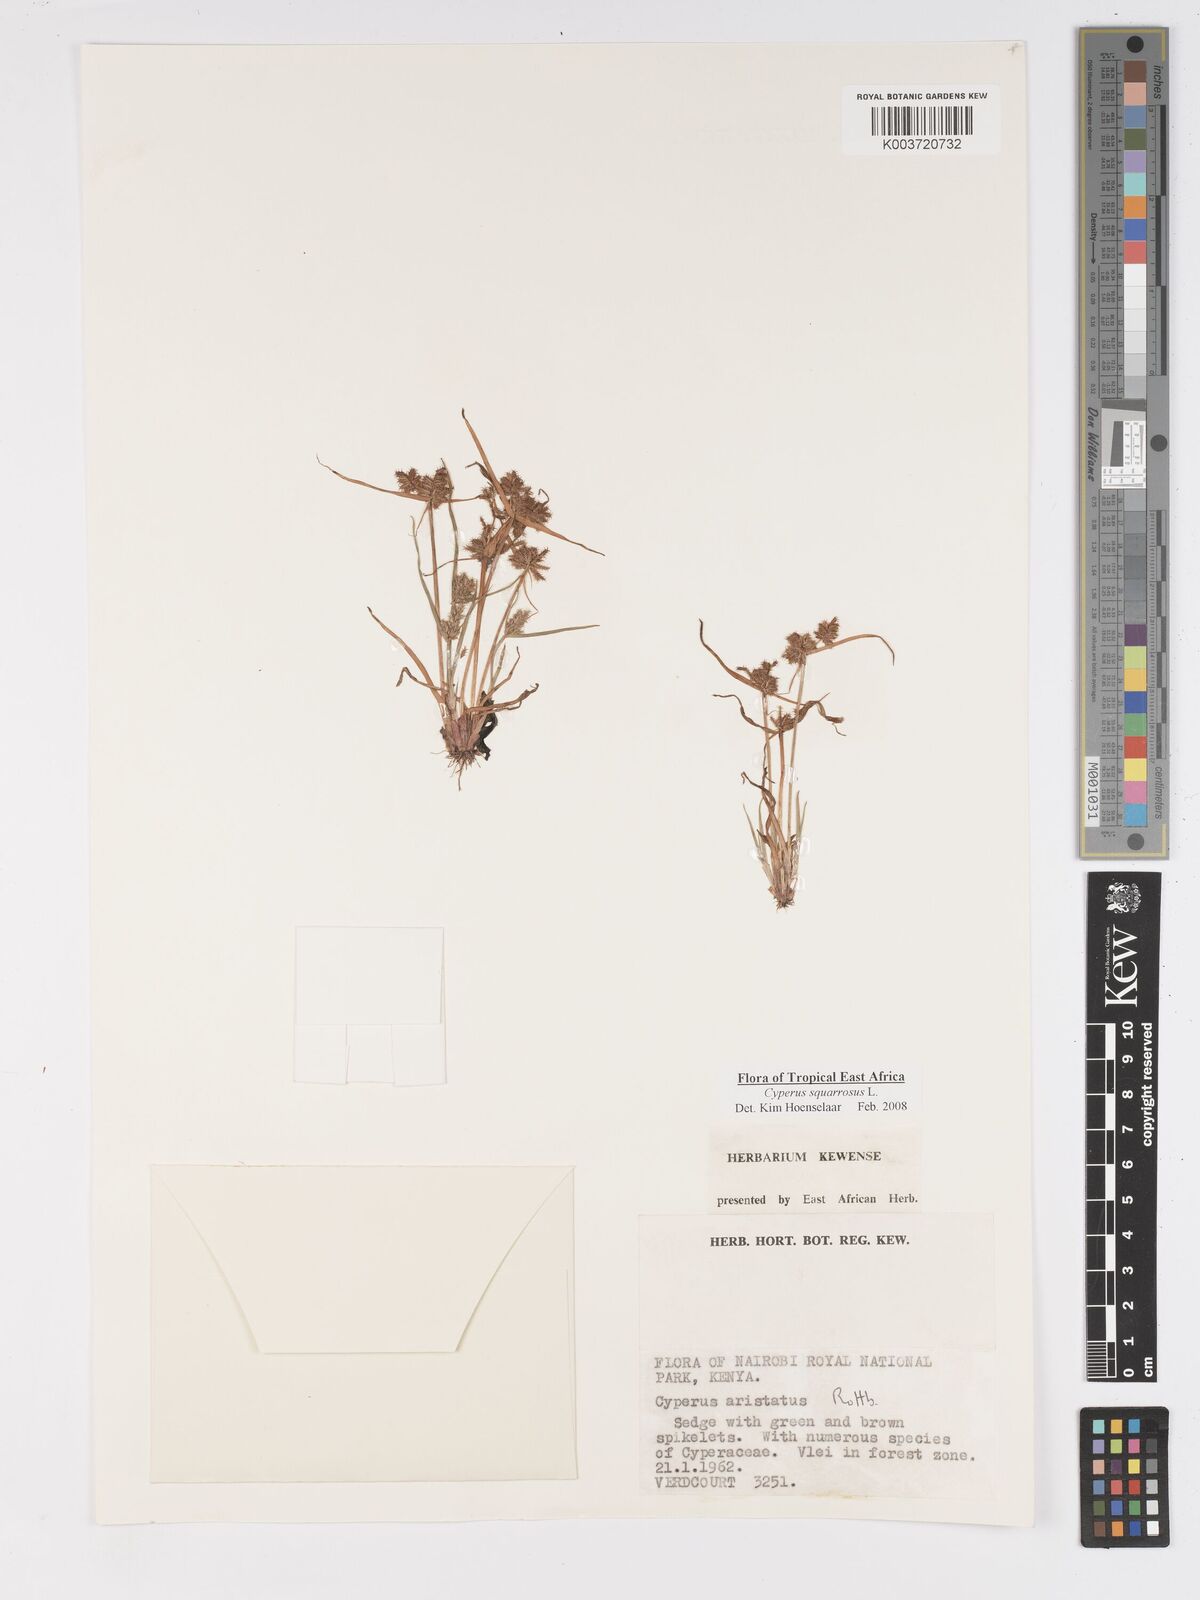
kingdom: Plantae
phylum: Tracheophyta
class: Liliopsida
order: Poales
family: Cyperaceae
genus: Cyperus
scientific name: Cyperus squarrosus
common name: Awned cyperus
